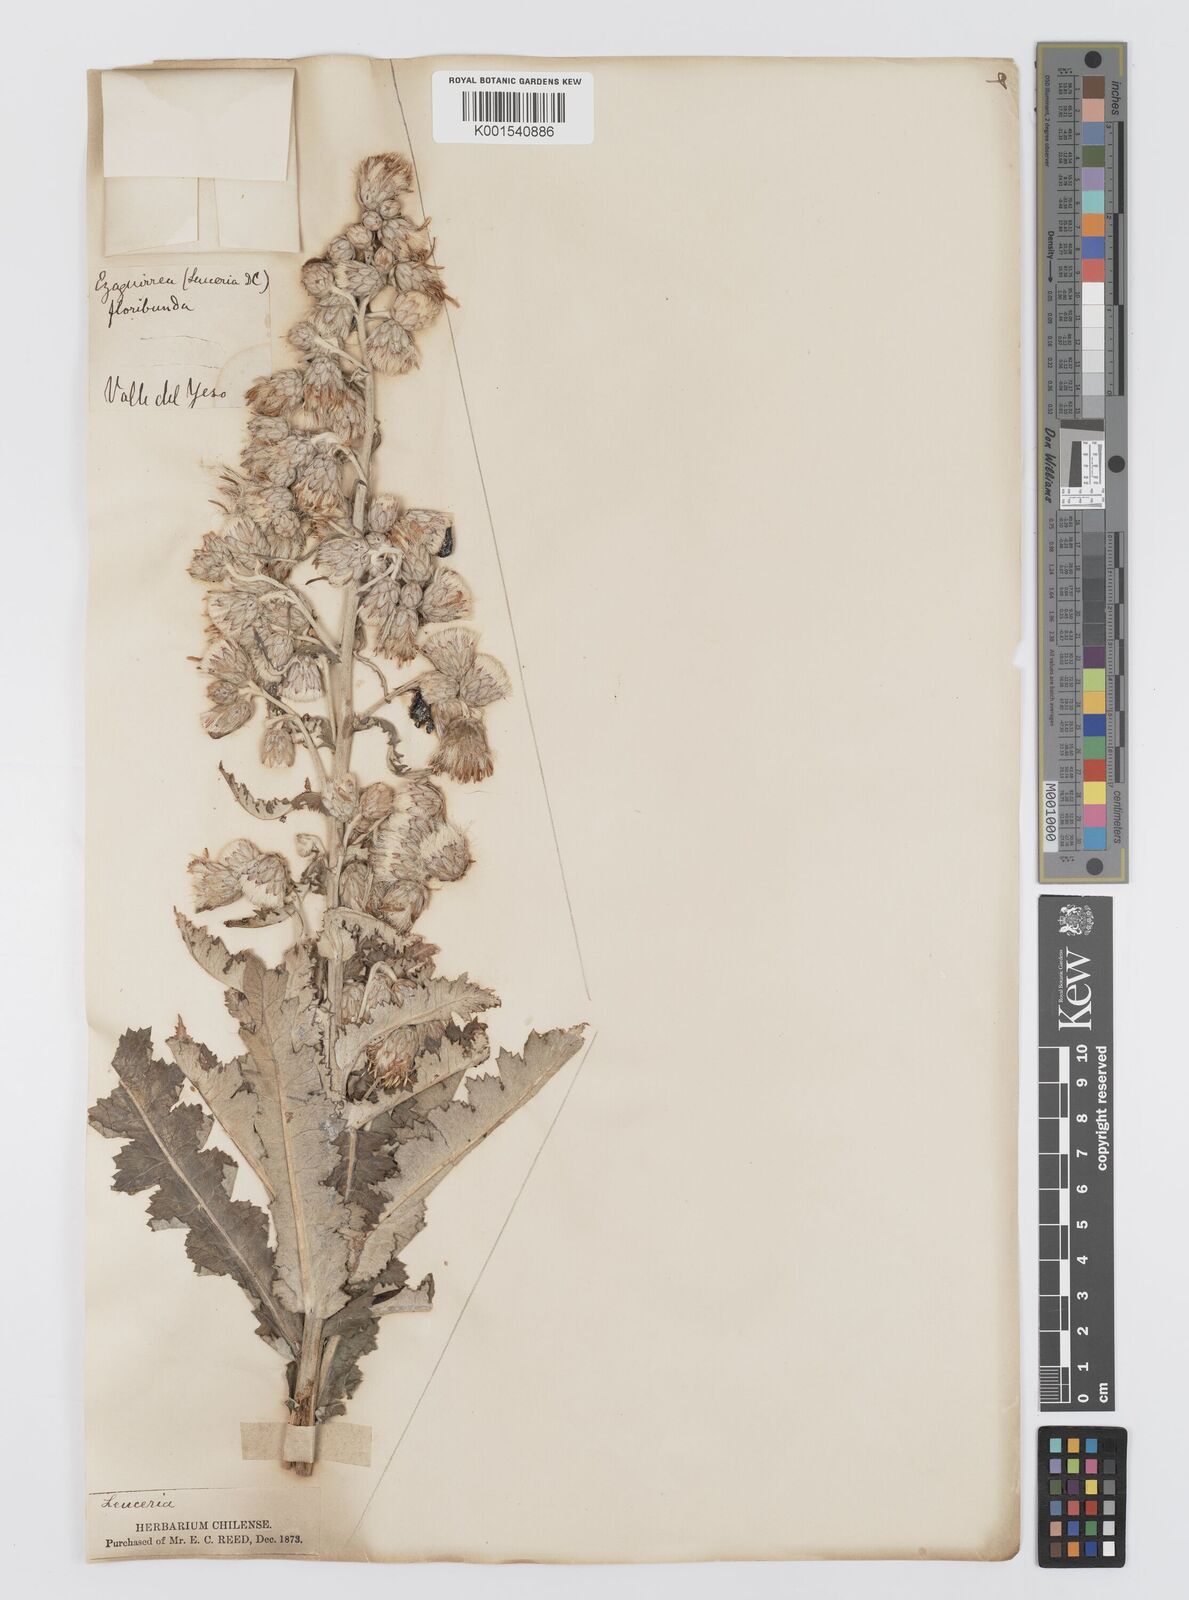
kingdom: Plantae
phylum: Tracheophyta
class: Magnoliopsida
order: Asterales
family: Asteraceae
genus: Leucheria
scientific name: Leucheria floribunda
